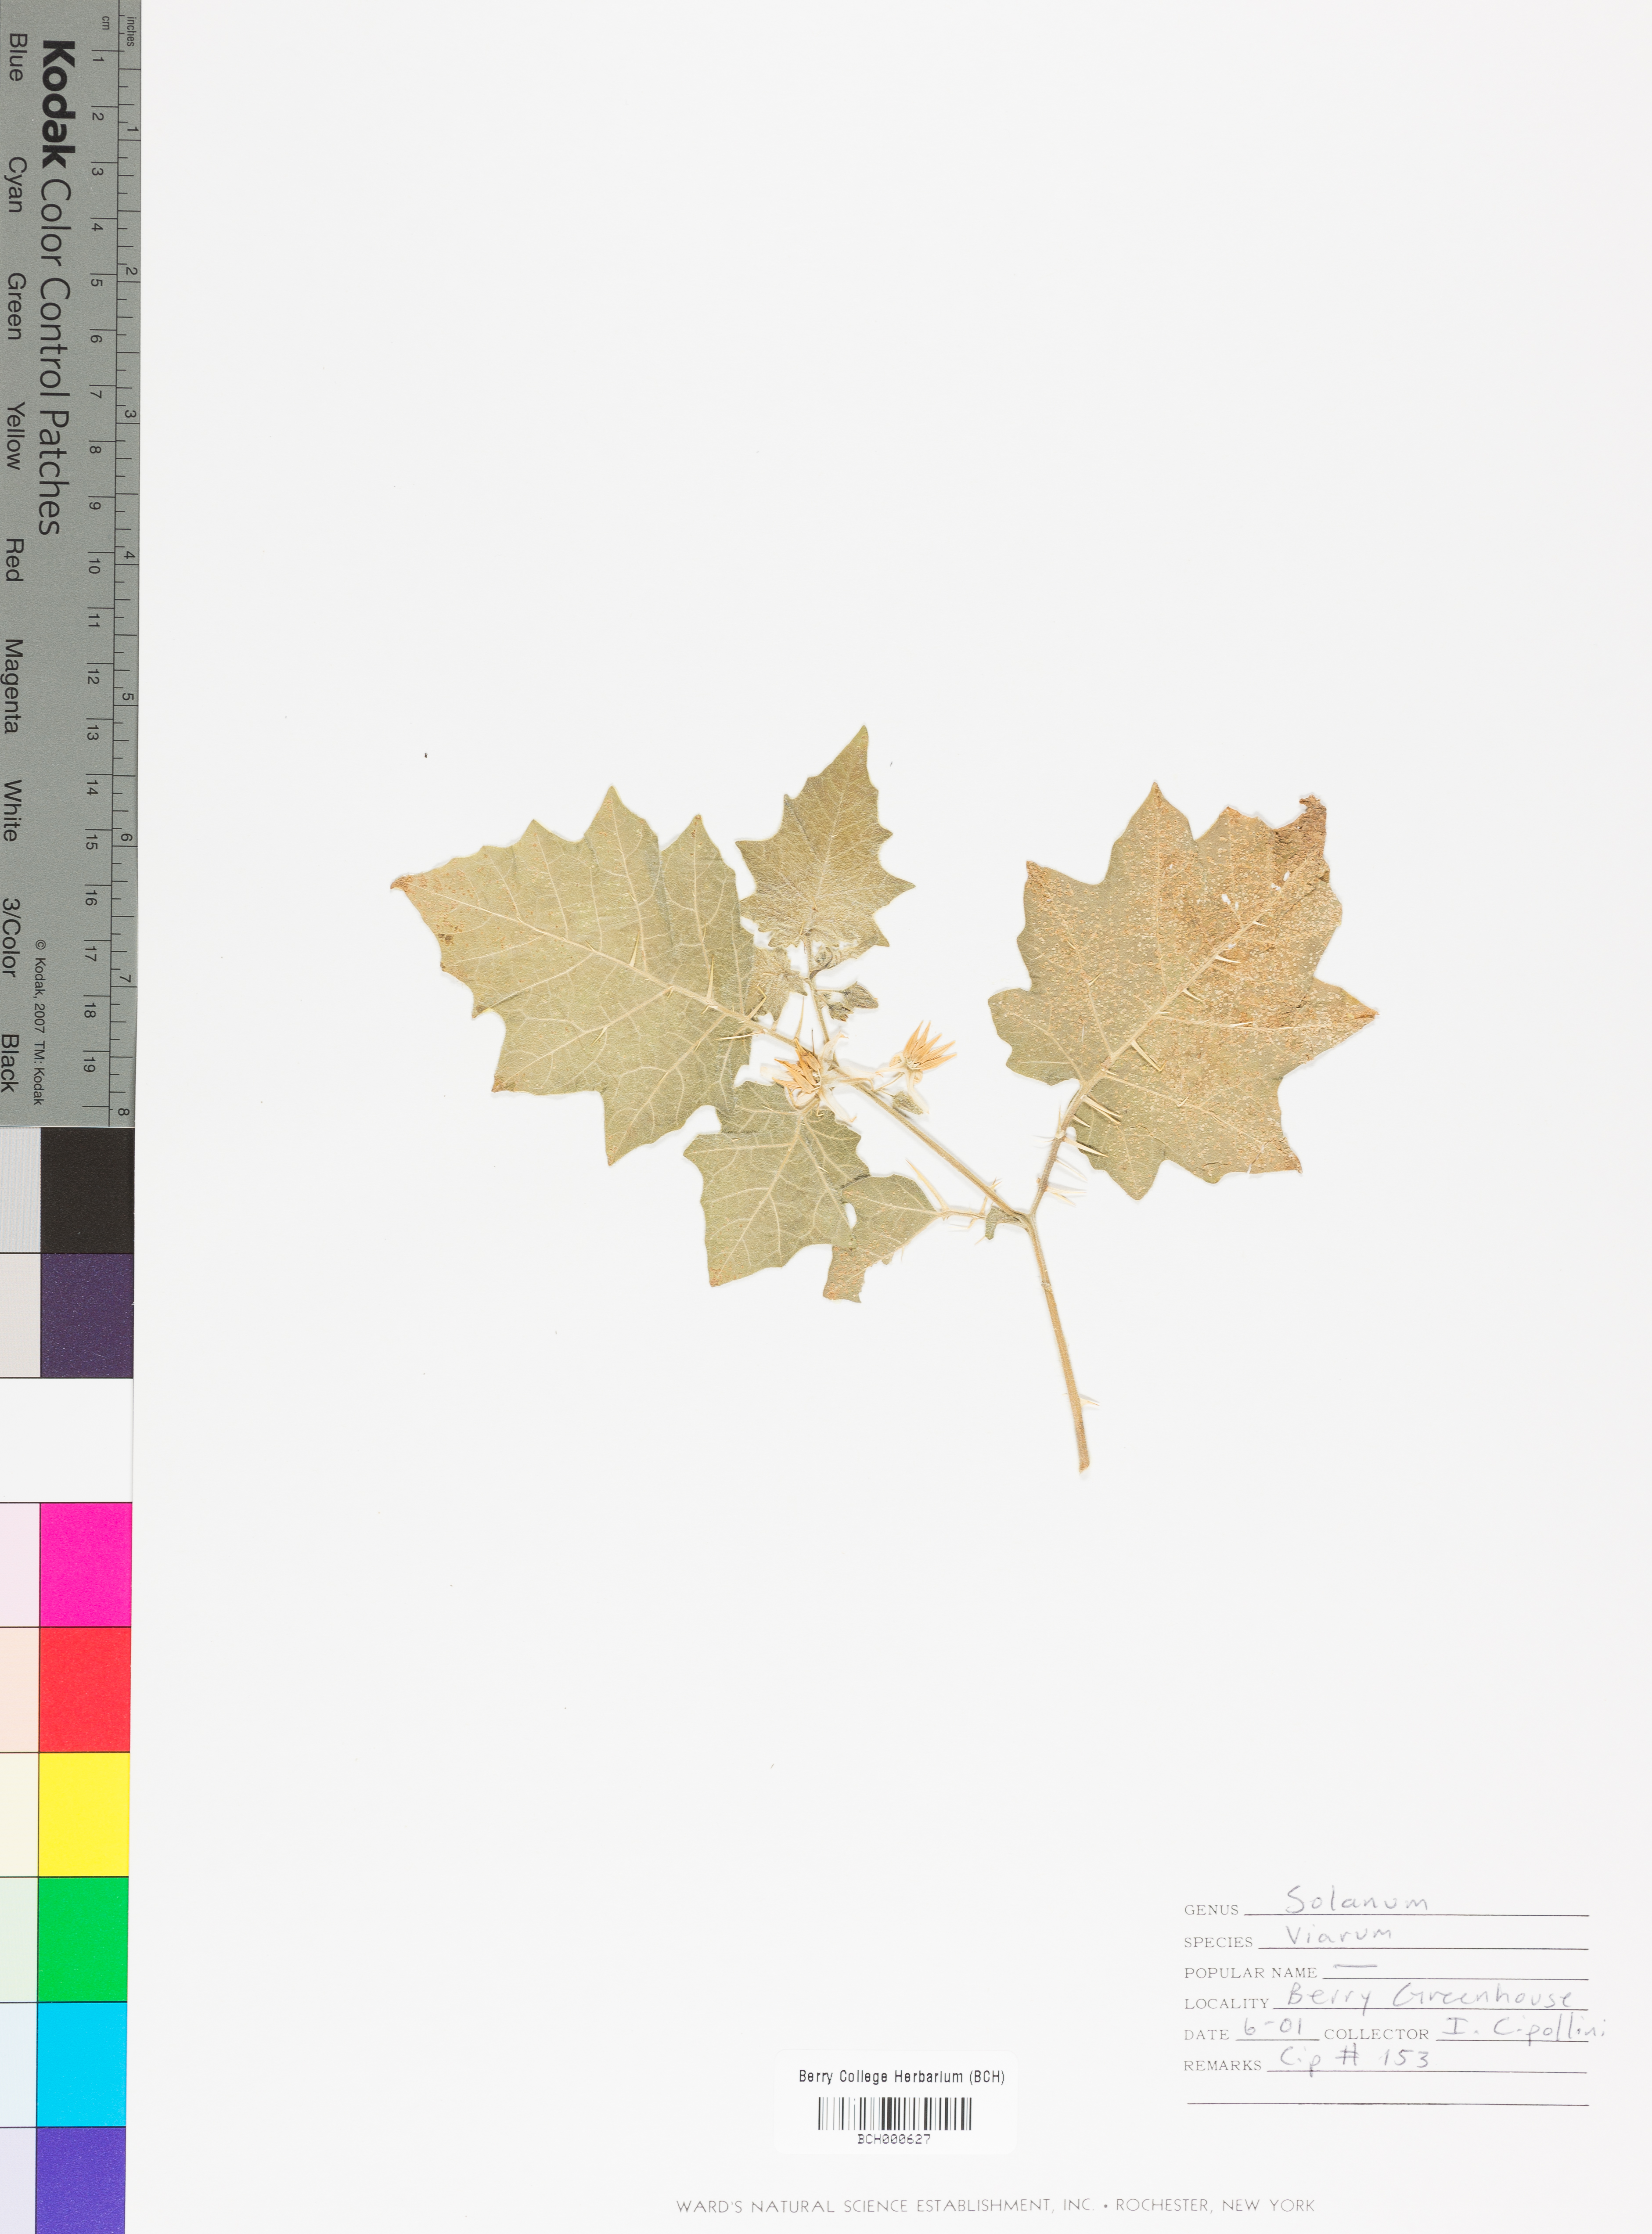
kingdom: Plantae
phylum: Tracheophyta
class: Magnoliopsida
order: Solanales
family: Solanaceae
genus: Solanum
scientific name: Solanum viarum
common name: Tropical soda apple
